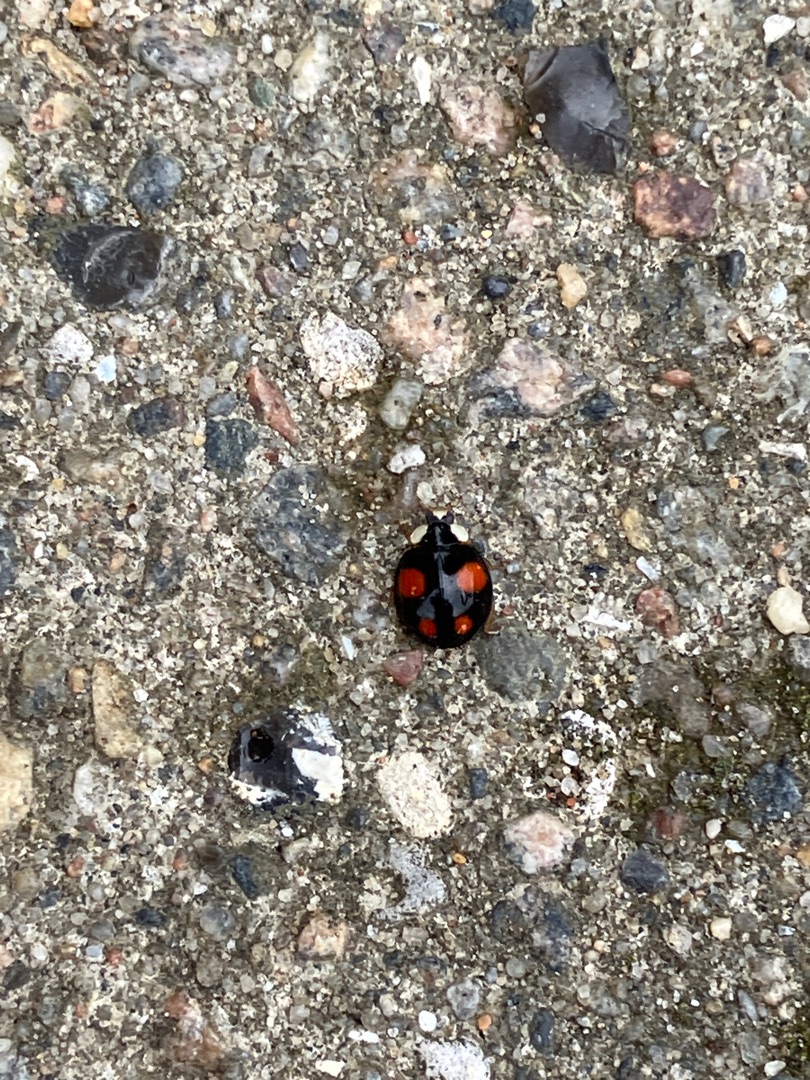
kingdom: Animalia
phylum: Arthropoda
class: Insecta
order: Coleoptera
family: Coccinellidae
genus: Harmonia
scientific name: Harmonia axyridis
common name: Harlekinmariehøne
